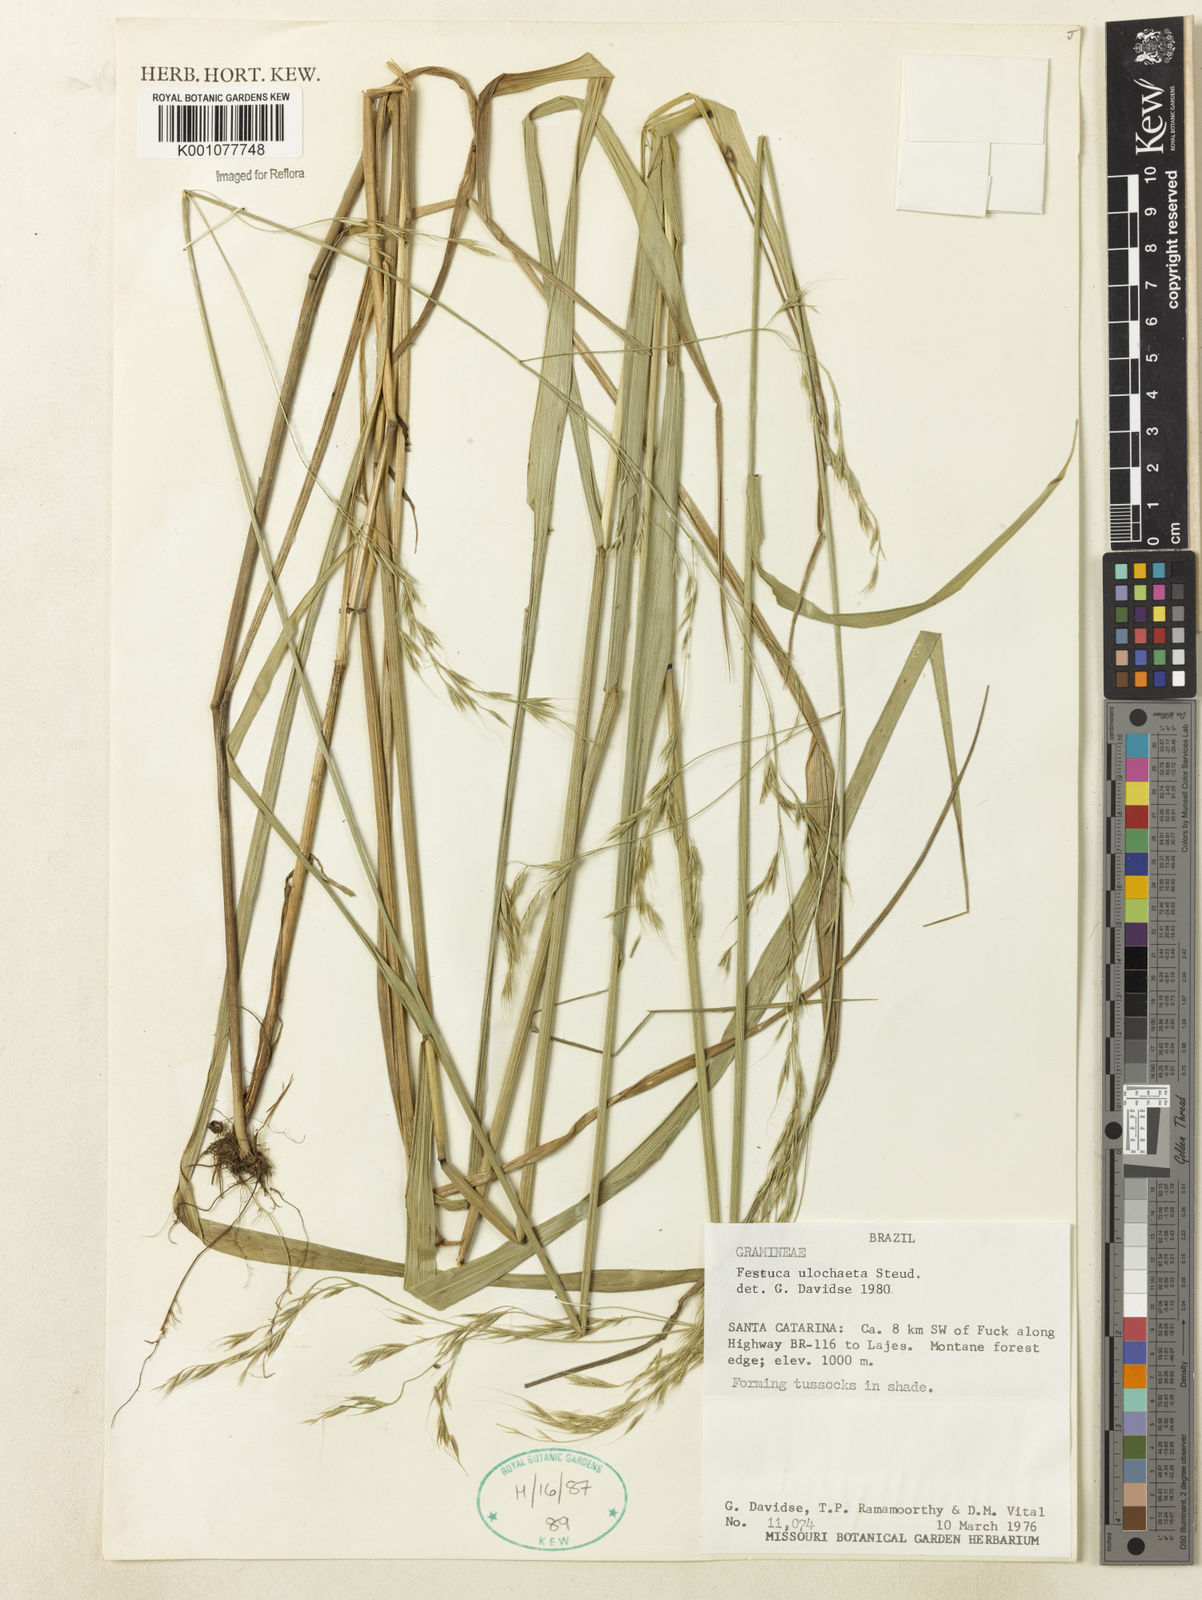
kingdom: Plantae
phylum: Tracheophyta
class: Liliopsida
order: Poales
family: Poaceae
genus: Festuca
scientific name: Festuca ulochaeta
